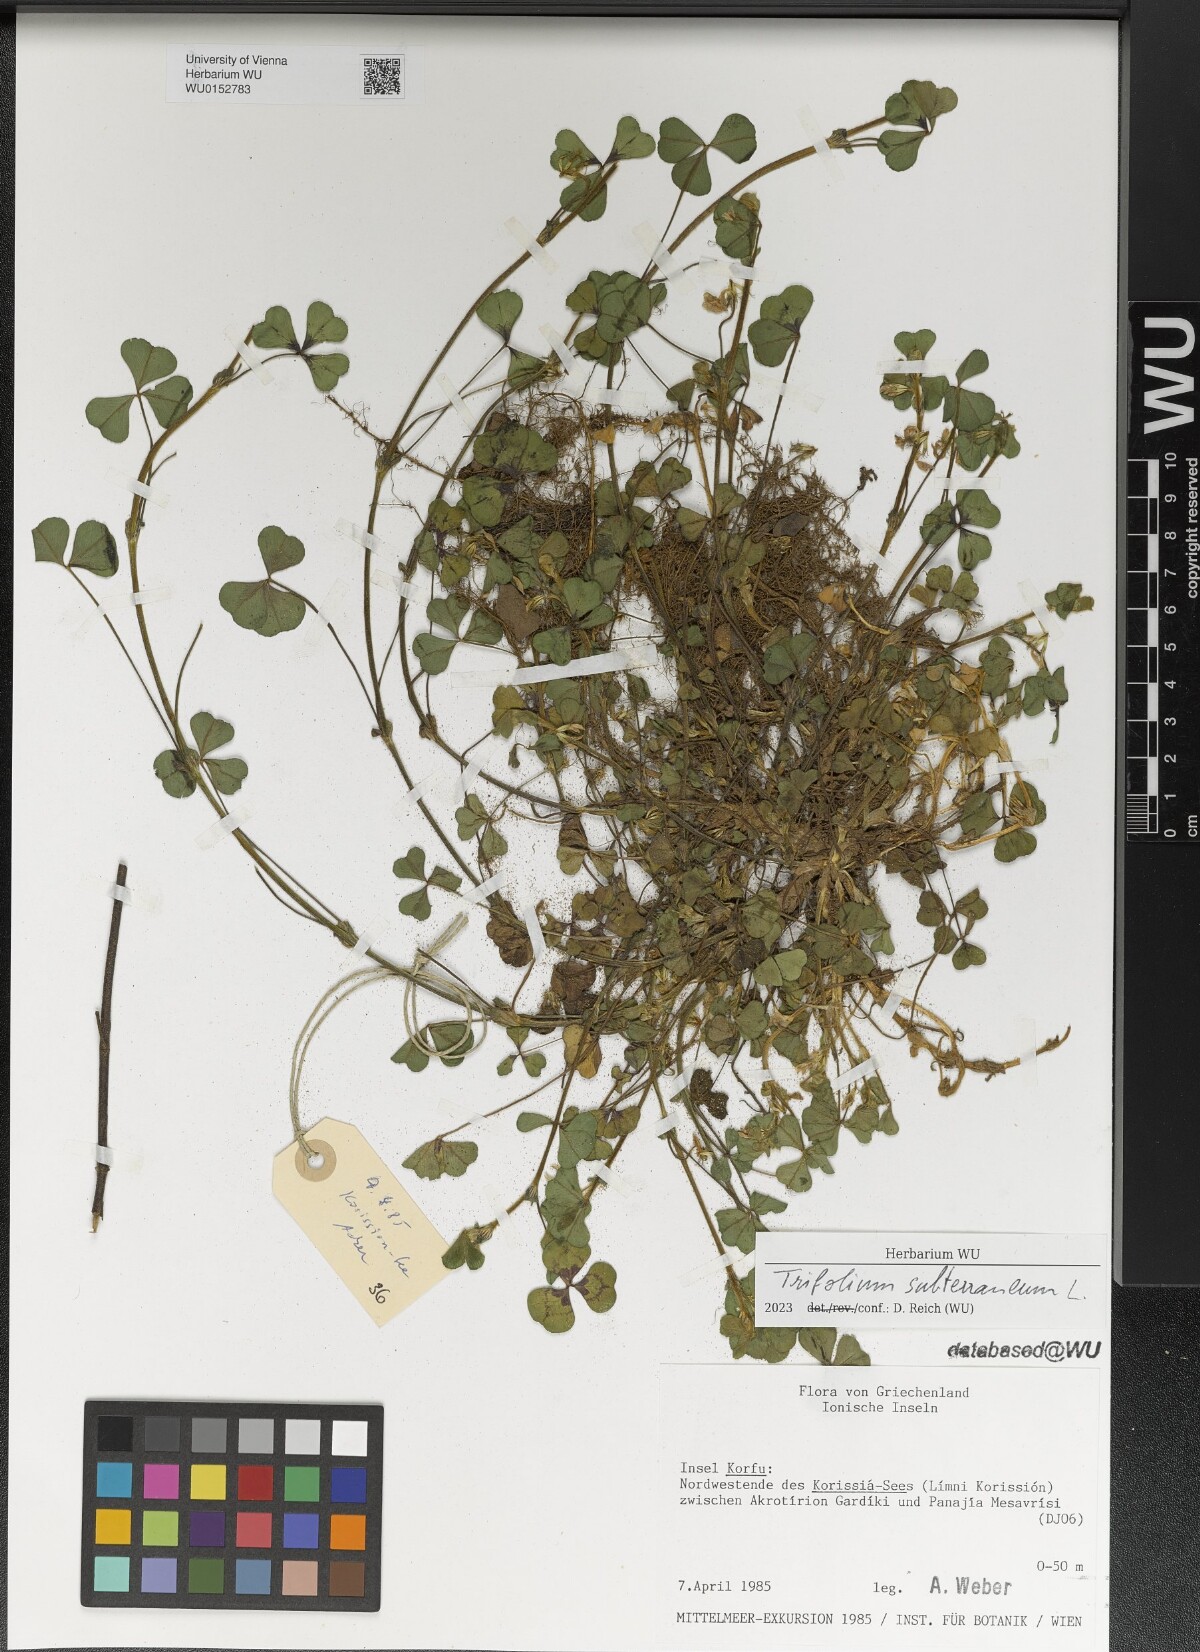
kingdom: Plantae
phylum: Tracheophyta
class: Magnoliopsida
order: Fabales
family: Fabaceae
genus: Trifolium
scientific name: Trifolium subterraneum
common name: Subterranean clover
